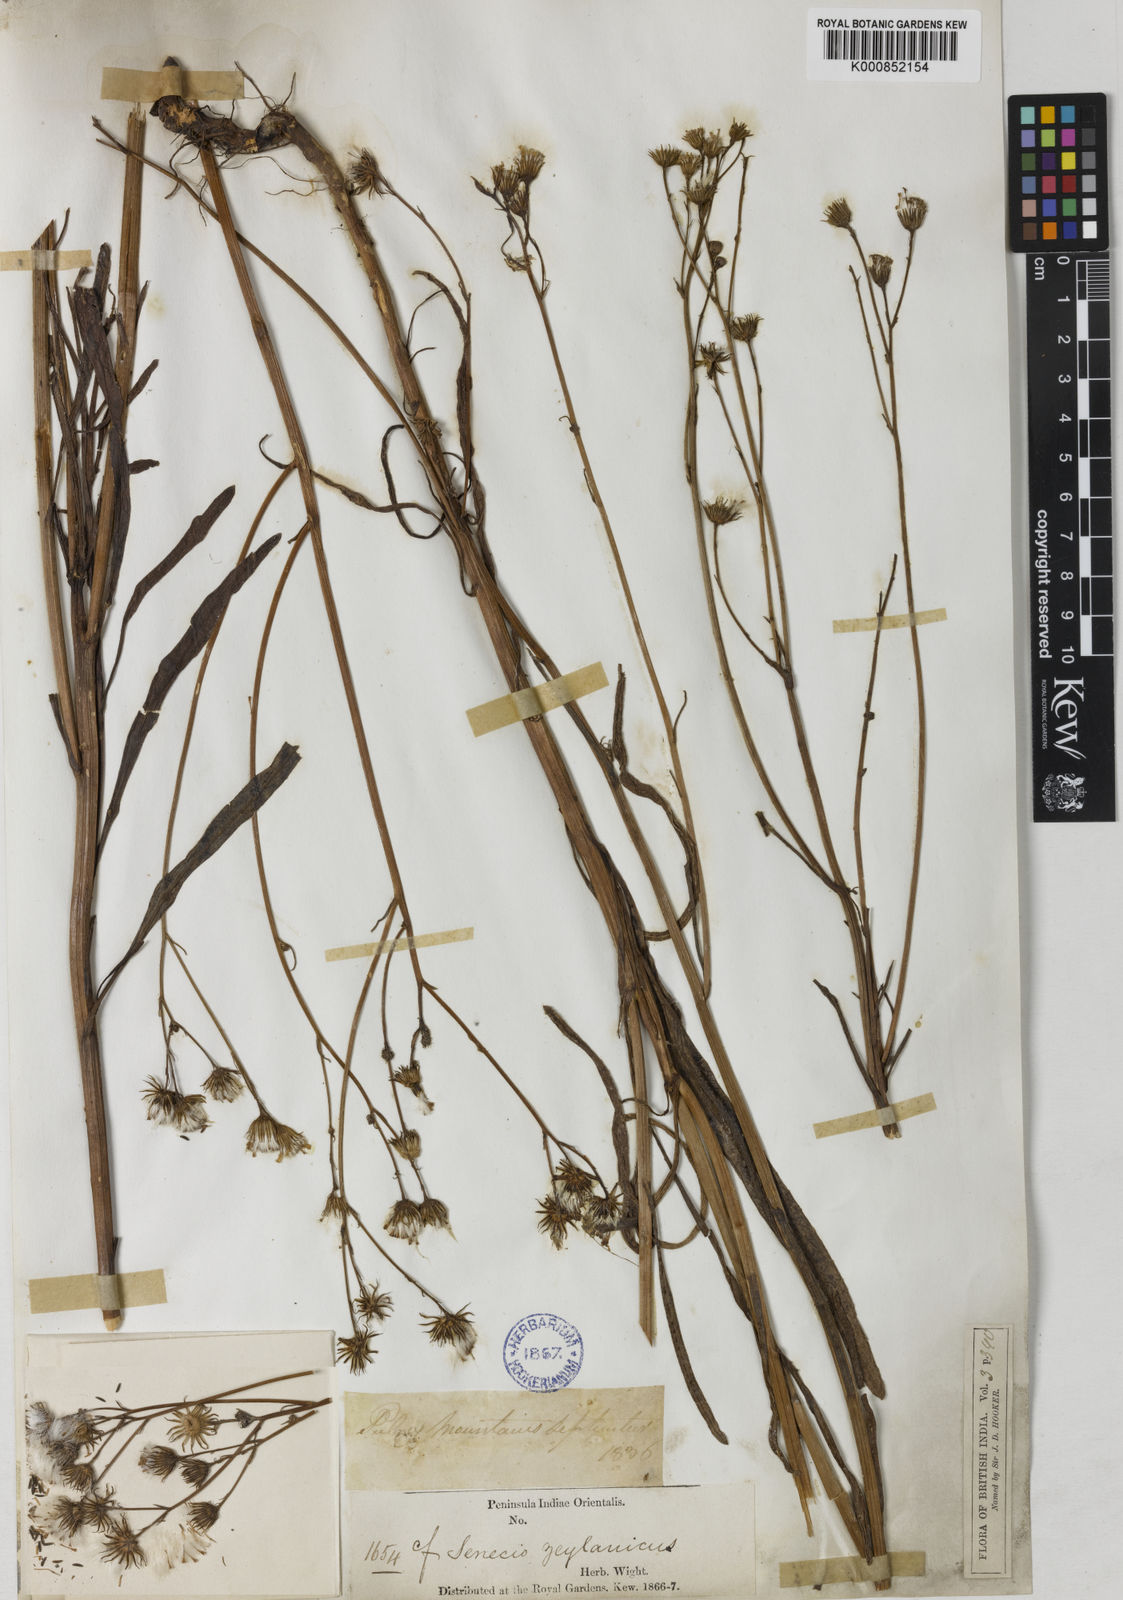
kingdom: Plantae
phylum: Tracheophyta
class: Magnoliopsida
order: Asterales
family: Asteraceae
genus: Senecio
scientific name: Senecio zeylanicus
